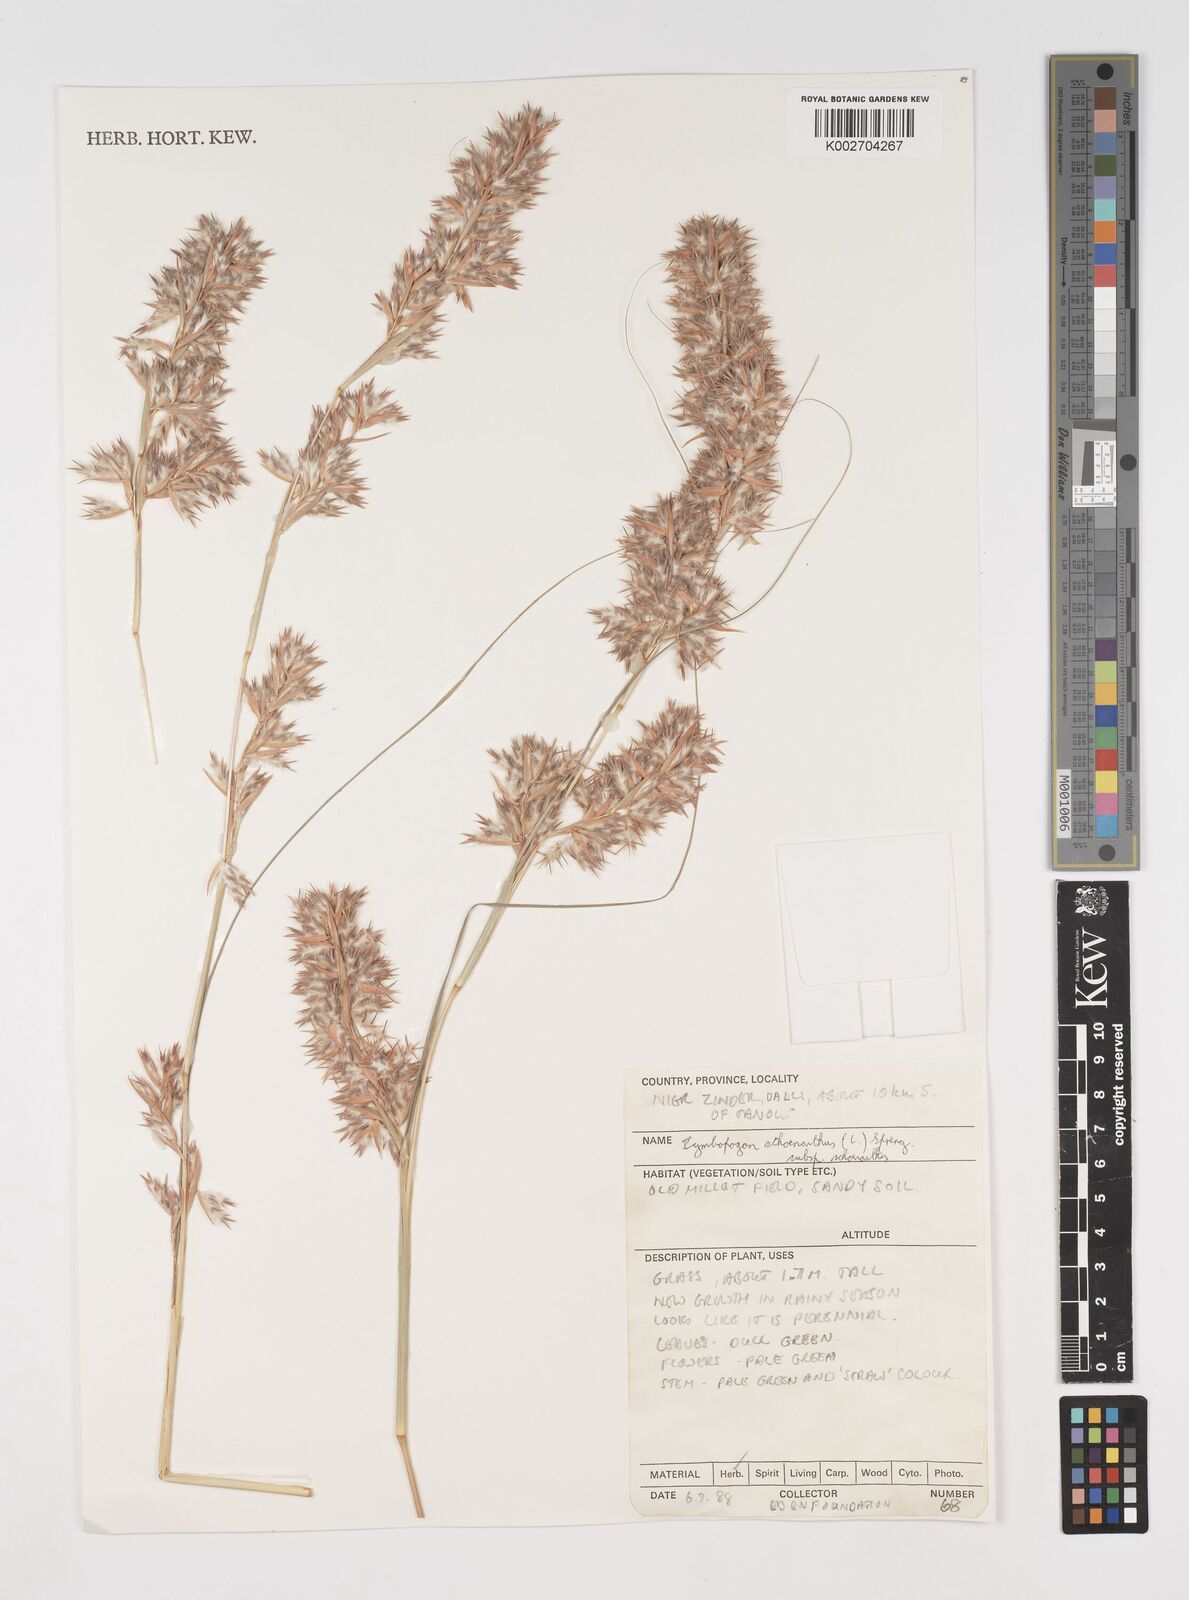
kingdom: Plantae
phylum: Tracheophyta
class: Liliopsida
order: Poales
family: Poaceae
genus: Cymbopogon
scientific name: Cymbopogon schoenanthus
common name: Geranium grass
